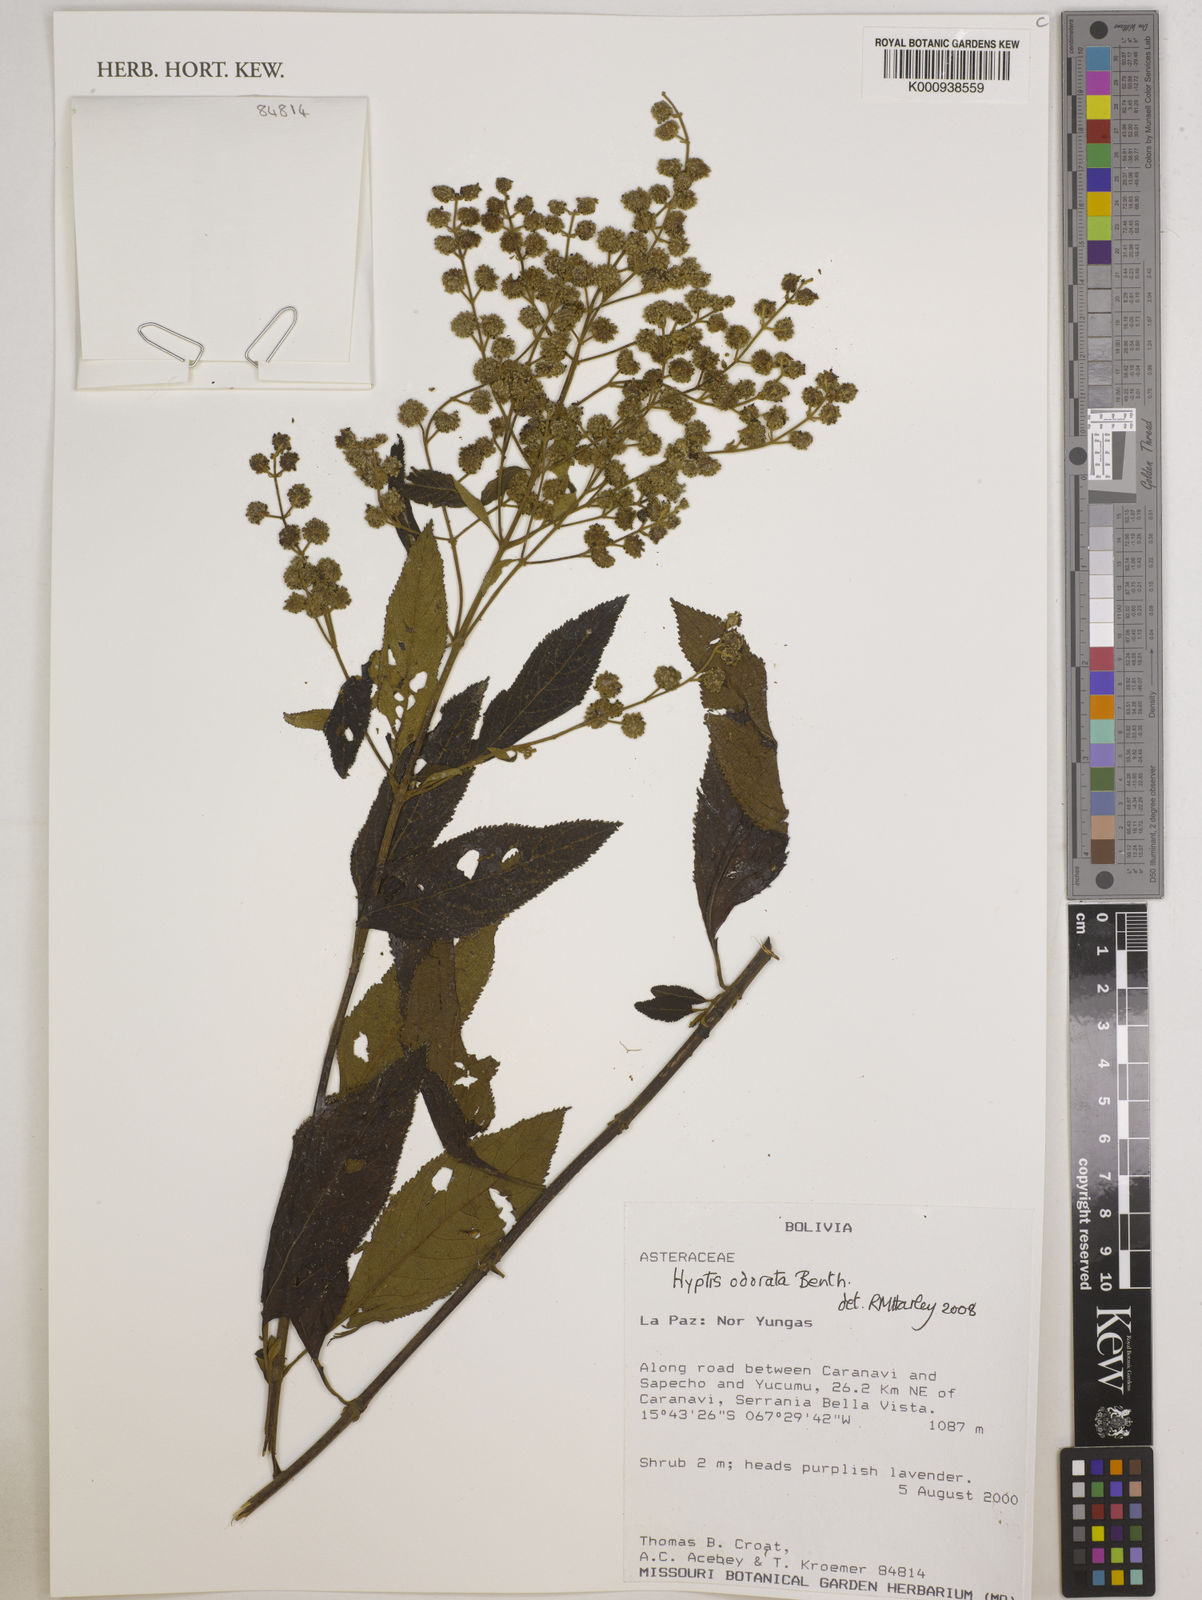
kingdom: Plantae
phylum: Tracheophyta
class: Magnoliopsida
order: Lamiales
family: Lamiaceae
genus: Hyptis
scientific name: Hyptis odorata
